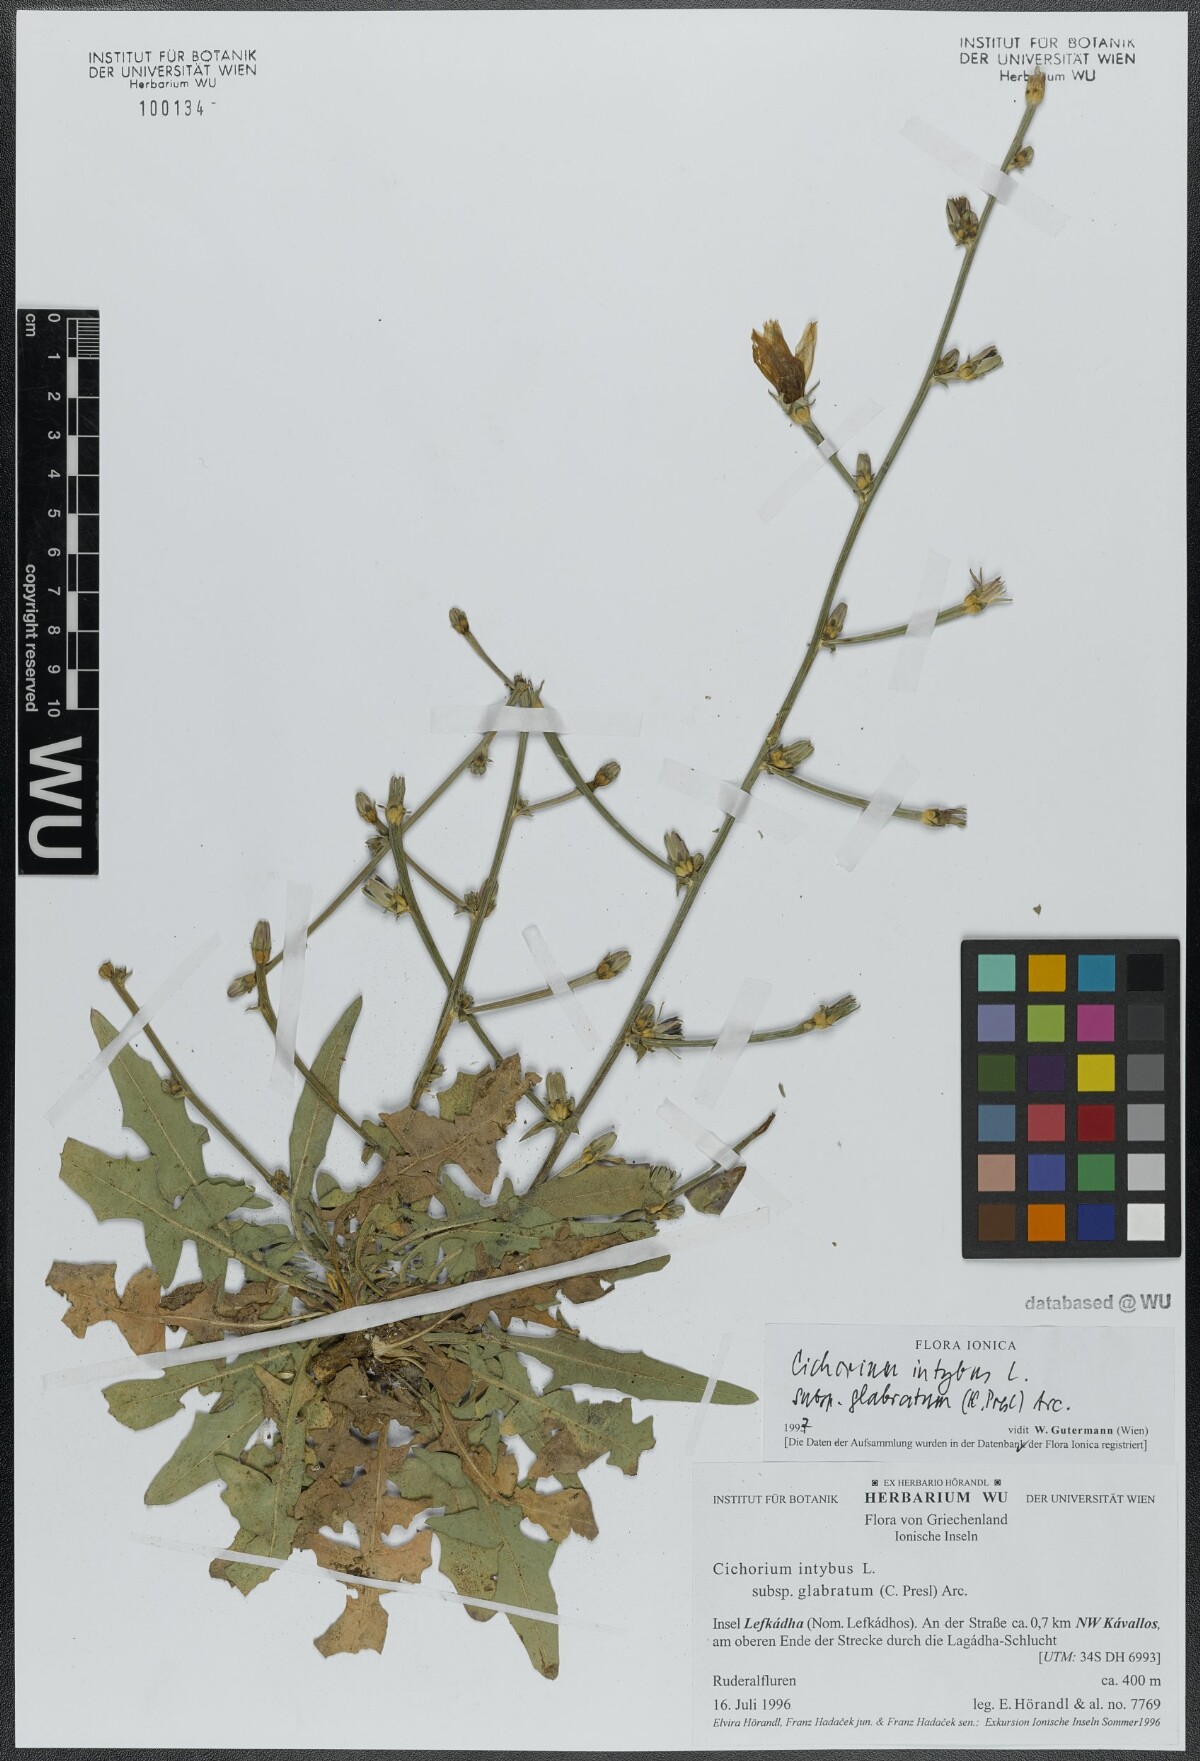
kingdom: Plantae
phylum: Tracheophyta
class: Magnoliopsida
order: Asterales
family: Asteraceae
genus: Cichorium
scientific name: Cichorium intybus
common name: Chicory
